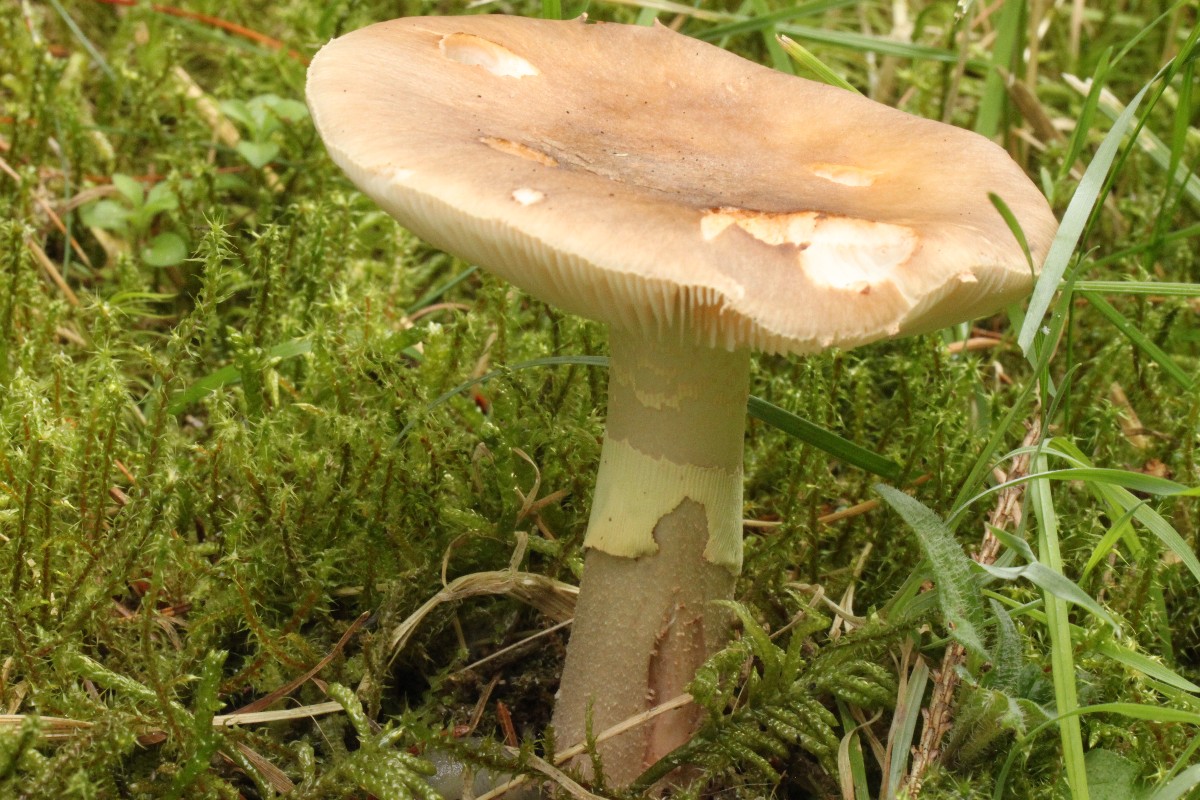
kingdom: Fungi
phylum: Basidiomycota
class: Agaricomycetes
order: Agaricales
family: Amanitaceae
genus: Amanita
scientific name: Amanita rubescens
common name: Blusher
